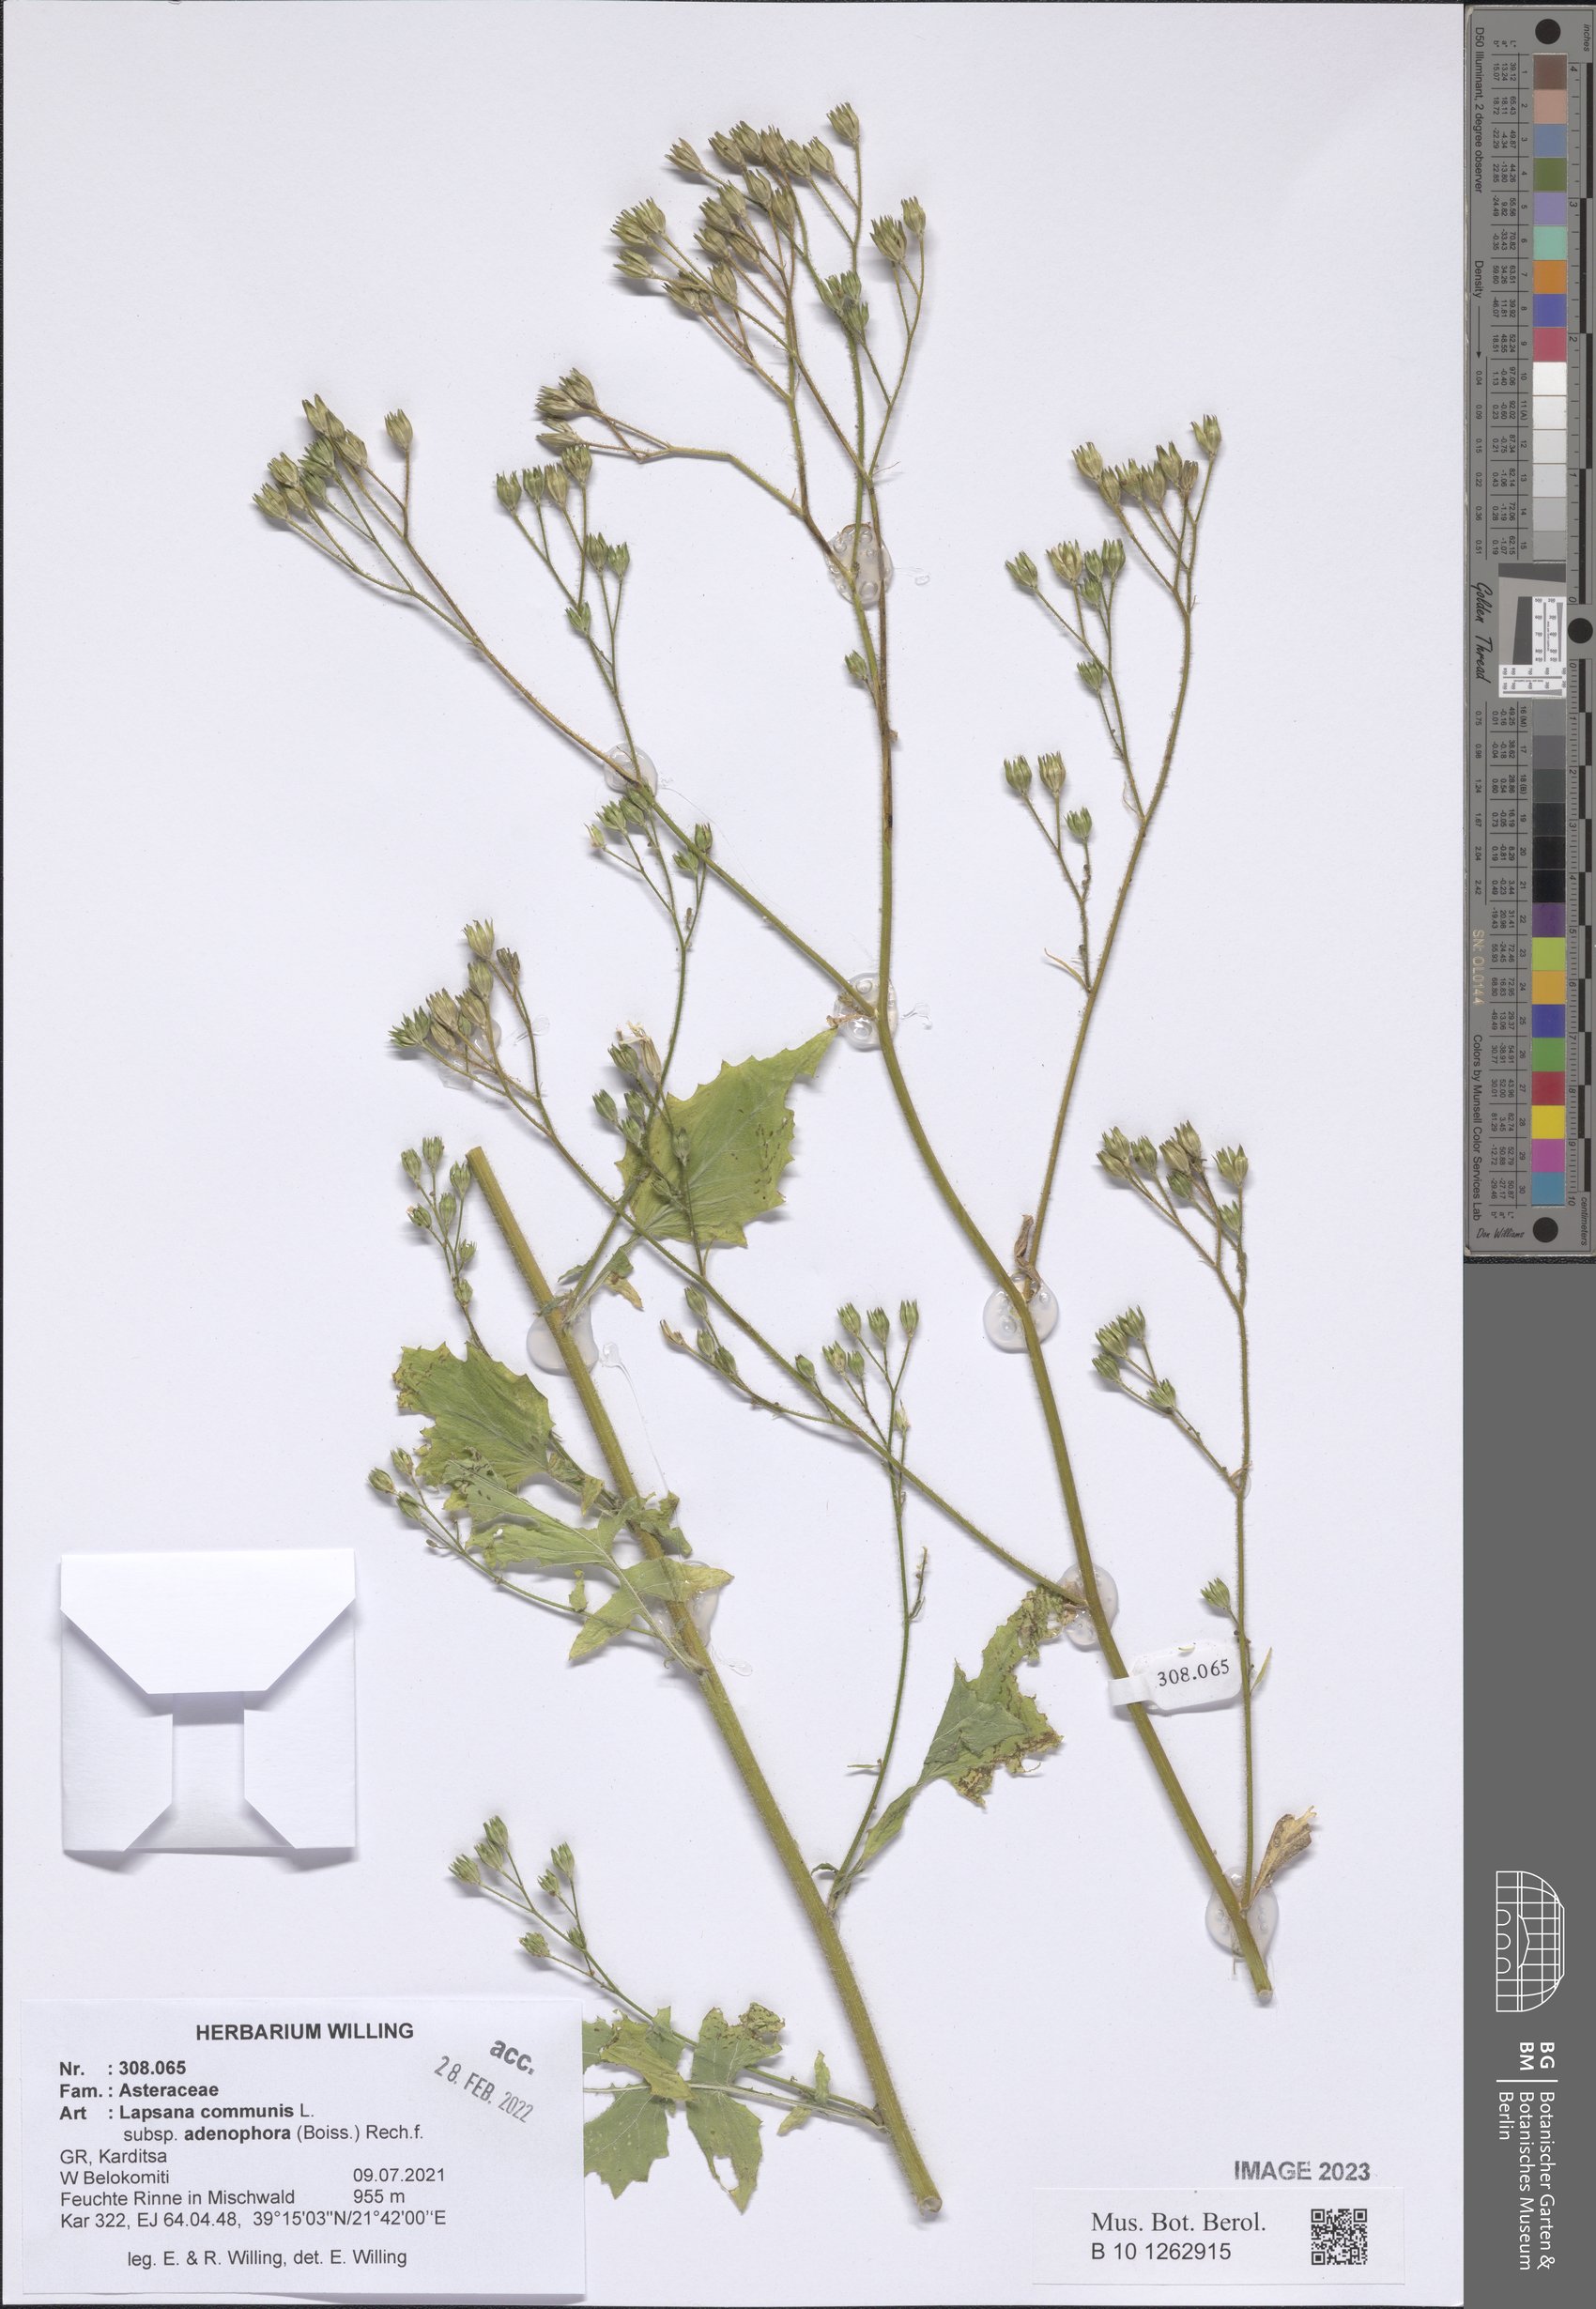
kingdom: Plantae
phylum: Tracheophyta
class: Magnoliopsida
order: Asterales
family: Asteraceae
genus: Lapsana
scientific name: Lapsana communis
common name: Nipplewort
